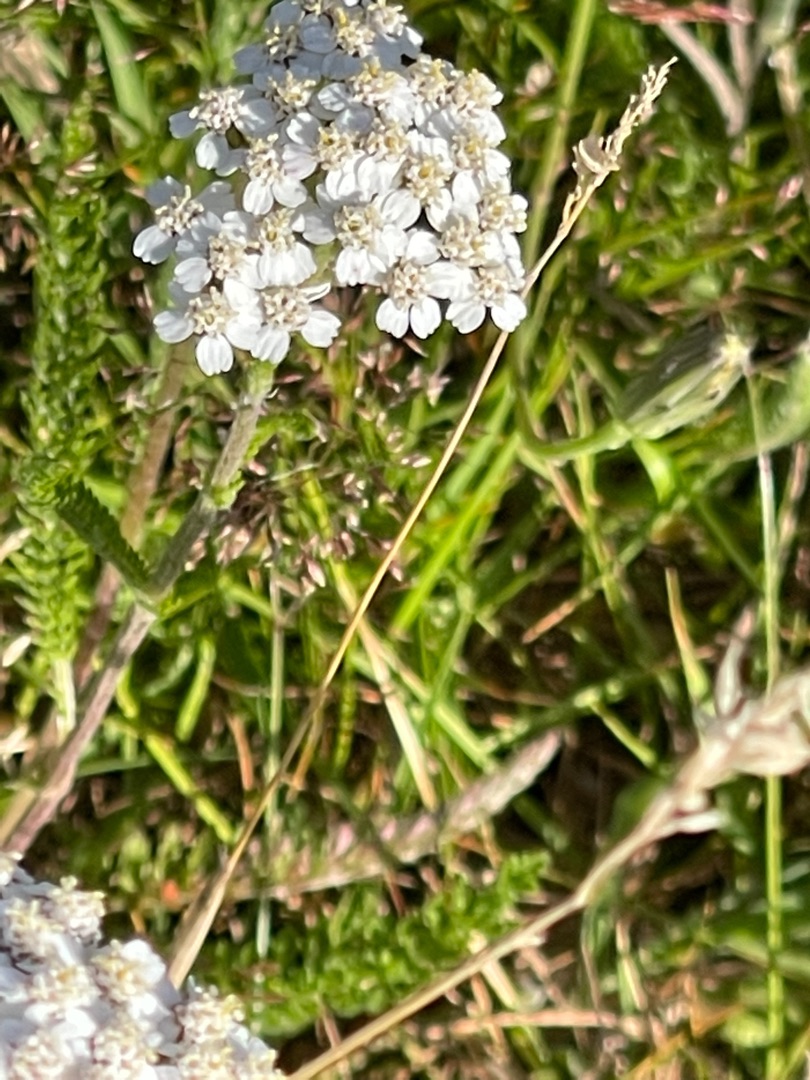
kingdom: Plantae
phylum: Tracheophyta
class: Magnoliopsida
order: Asterales
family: Asteraceae
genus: Achillea
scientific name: Achillea millefolium
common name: Almindelig røllike
